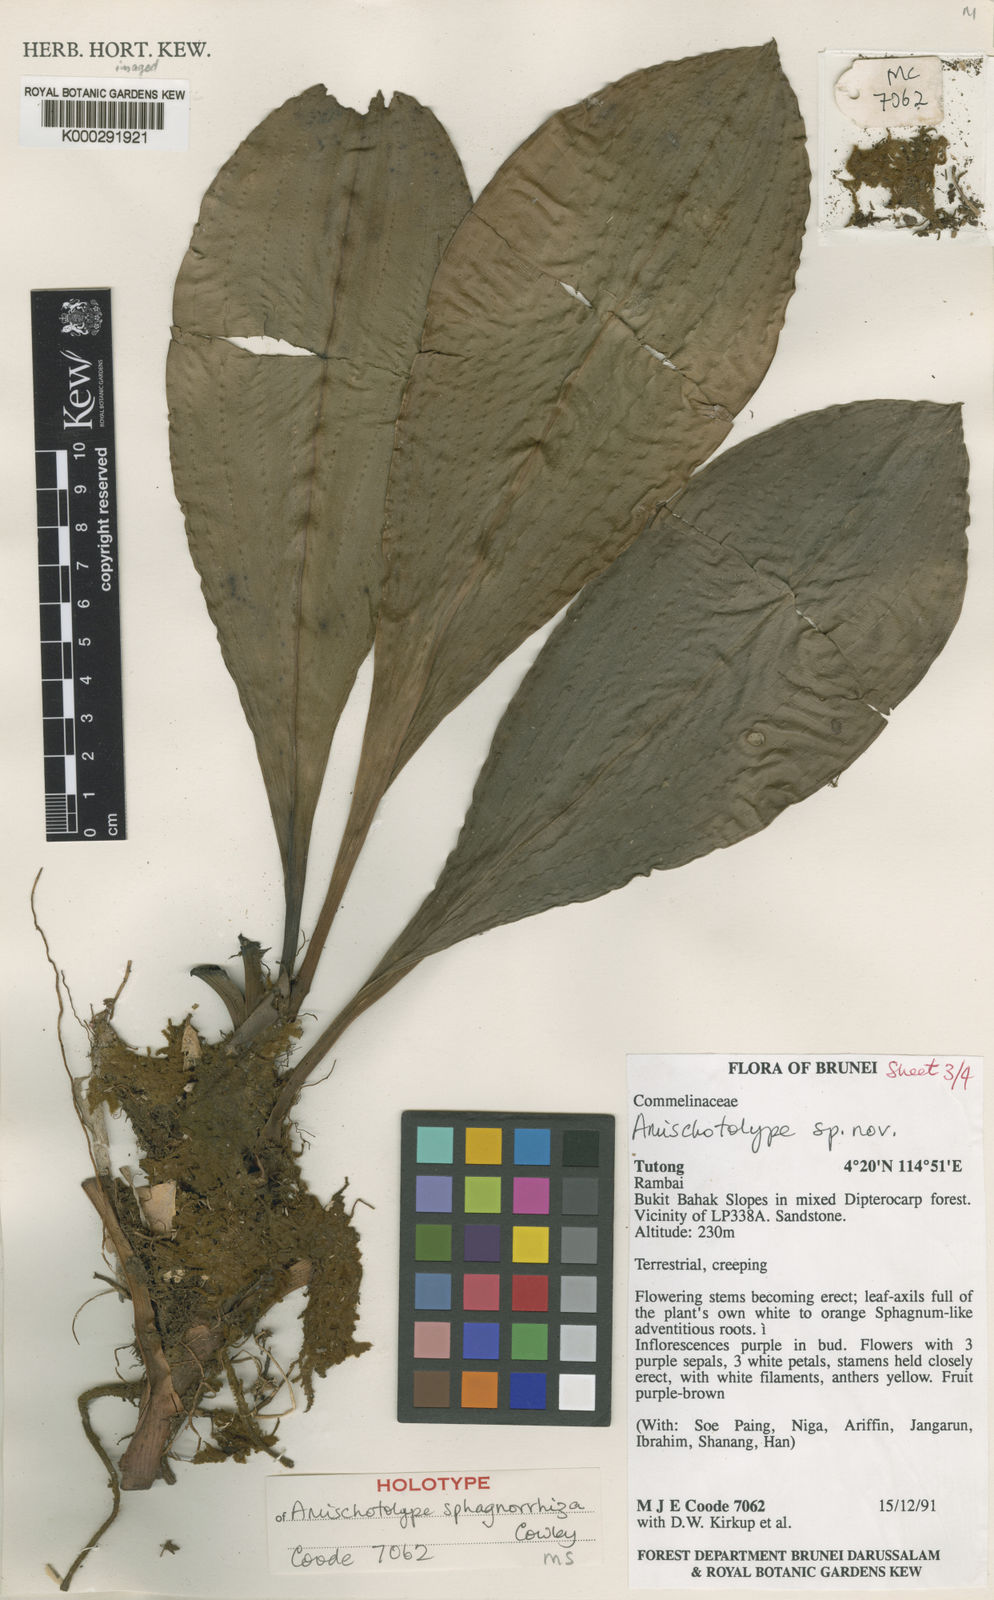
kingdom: Plantae
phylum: Tracheophyta
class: Liliopsida
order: Commelinales
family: Commelinaceae
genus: Amischotolype
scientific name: Amischotolype sphagnorrhiza
